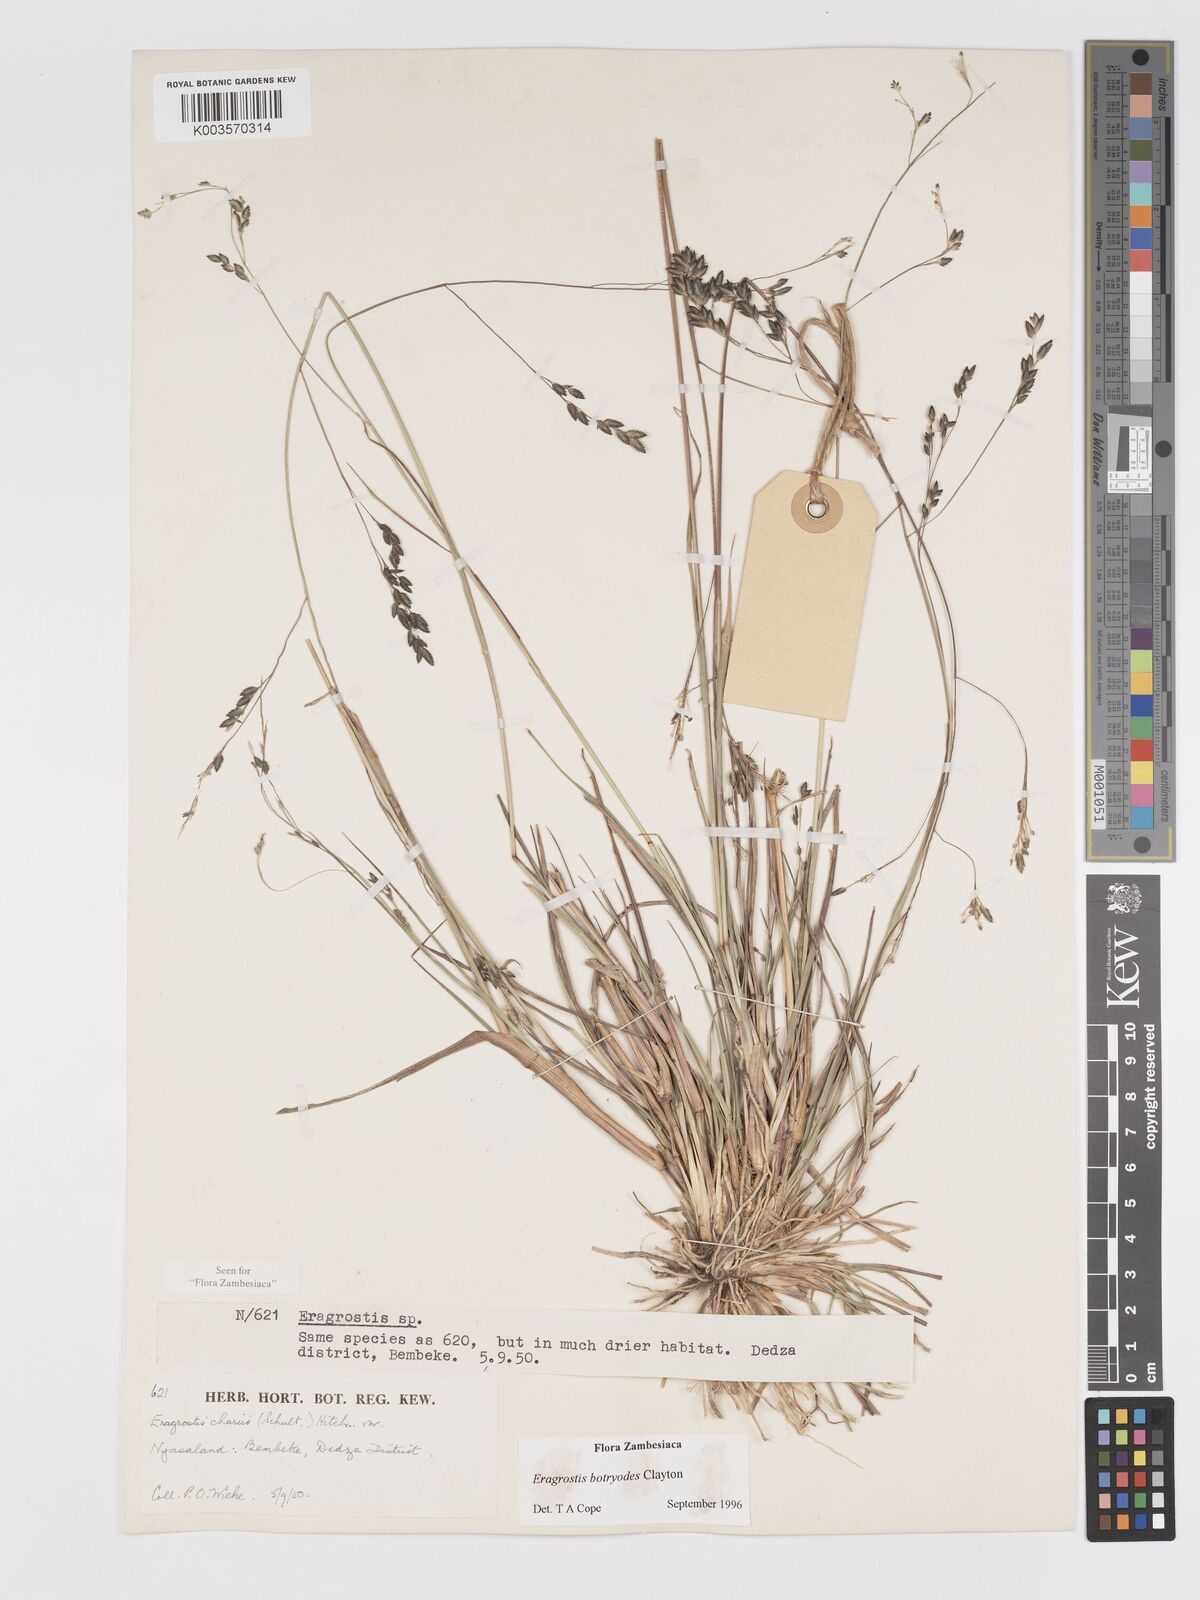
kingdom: Plantae
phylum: Tracheophyta
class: Liliopsida
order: Poales
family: Poaceae
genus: Eragrostis
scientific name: Eragrostis botryodes
